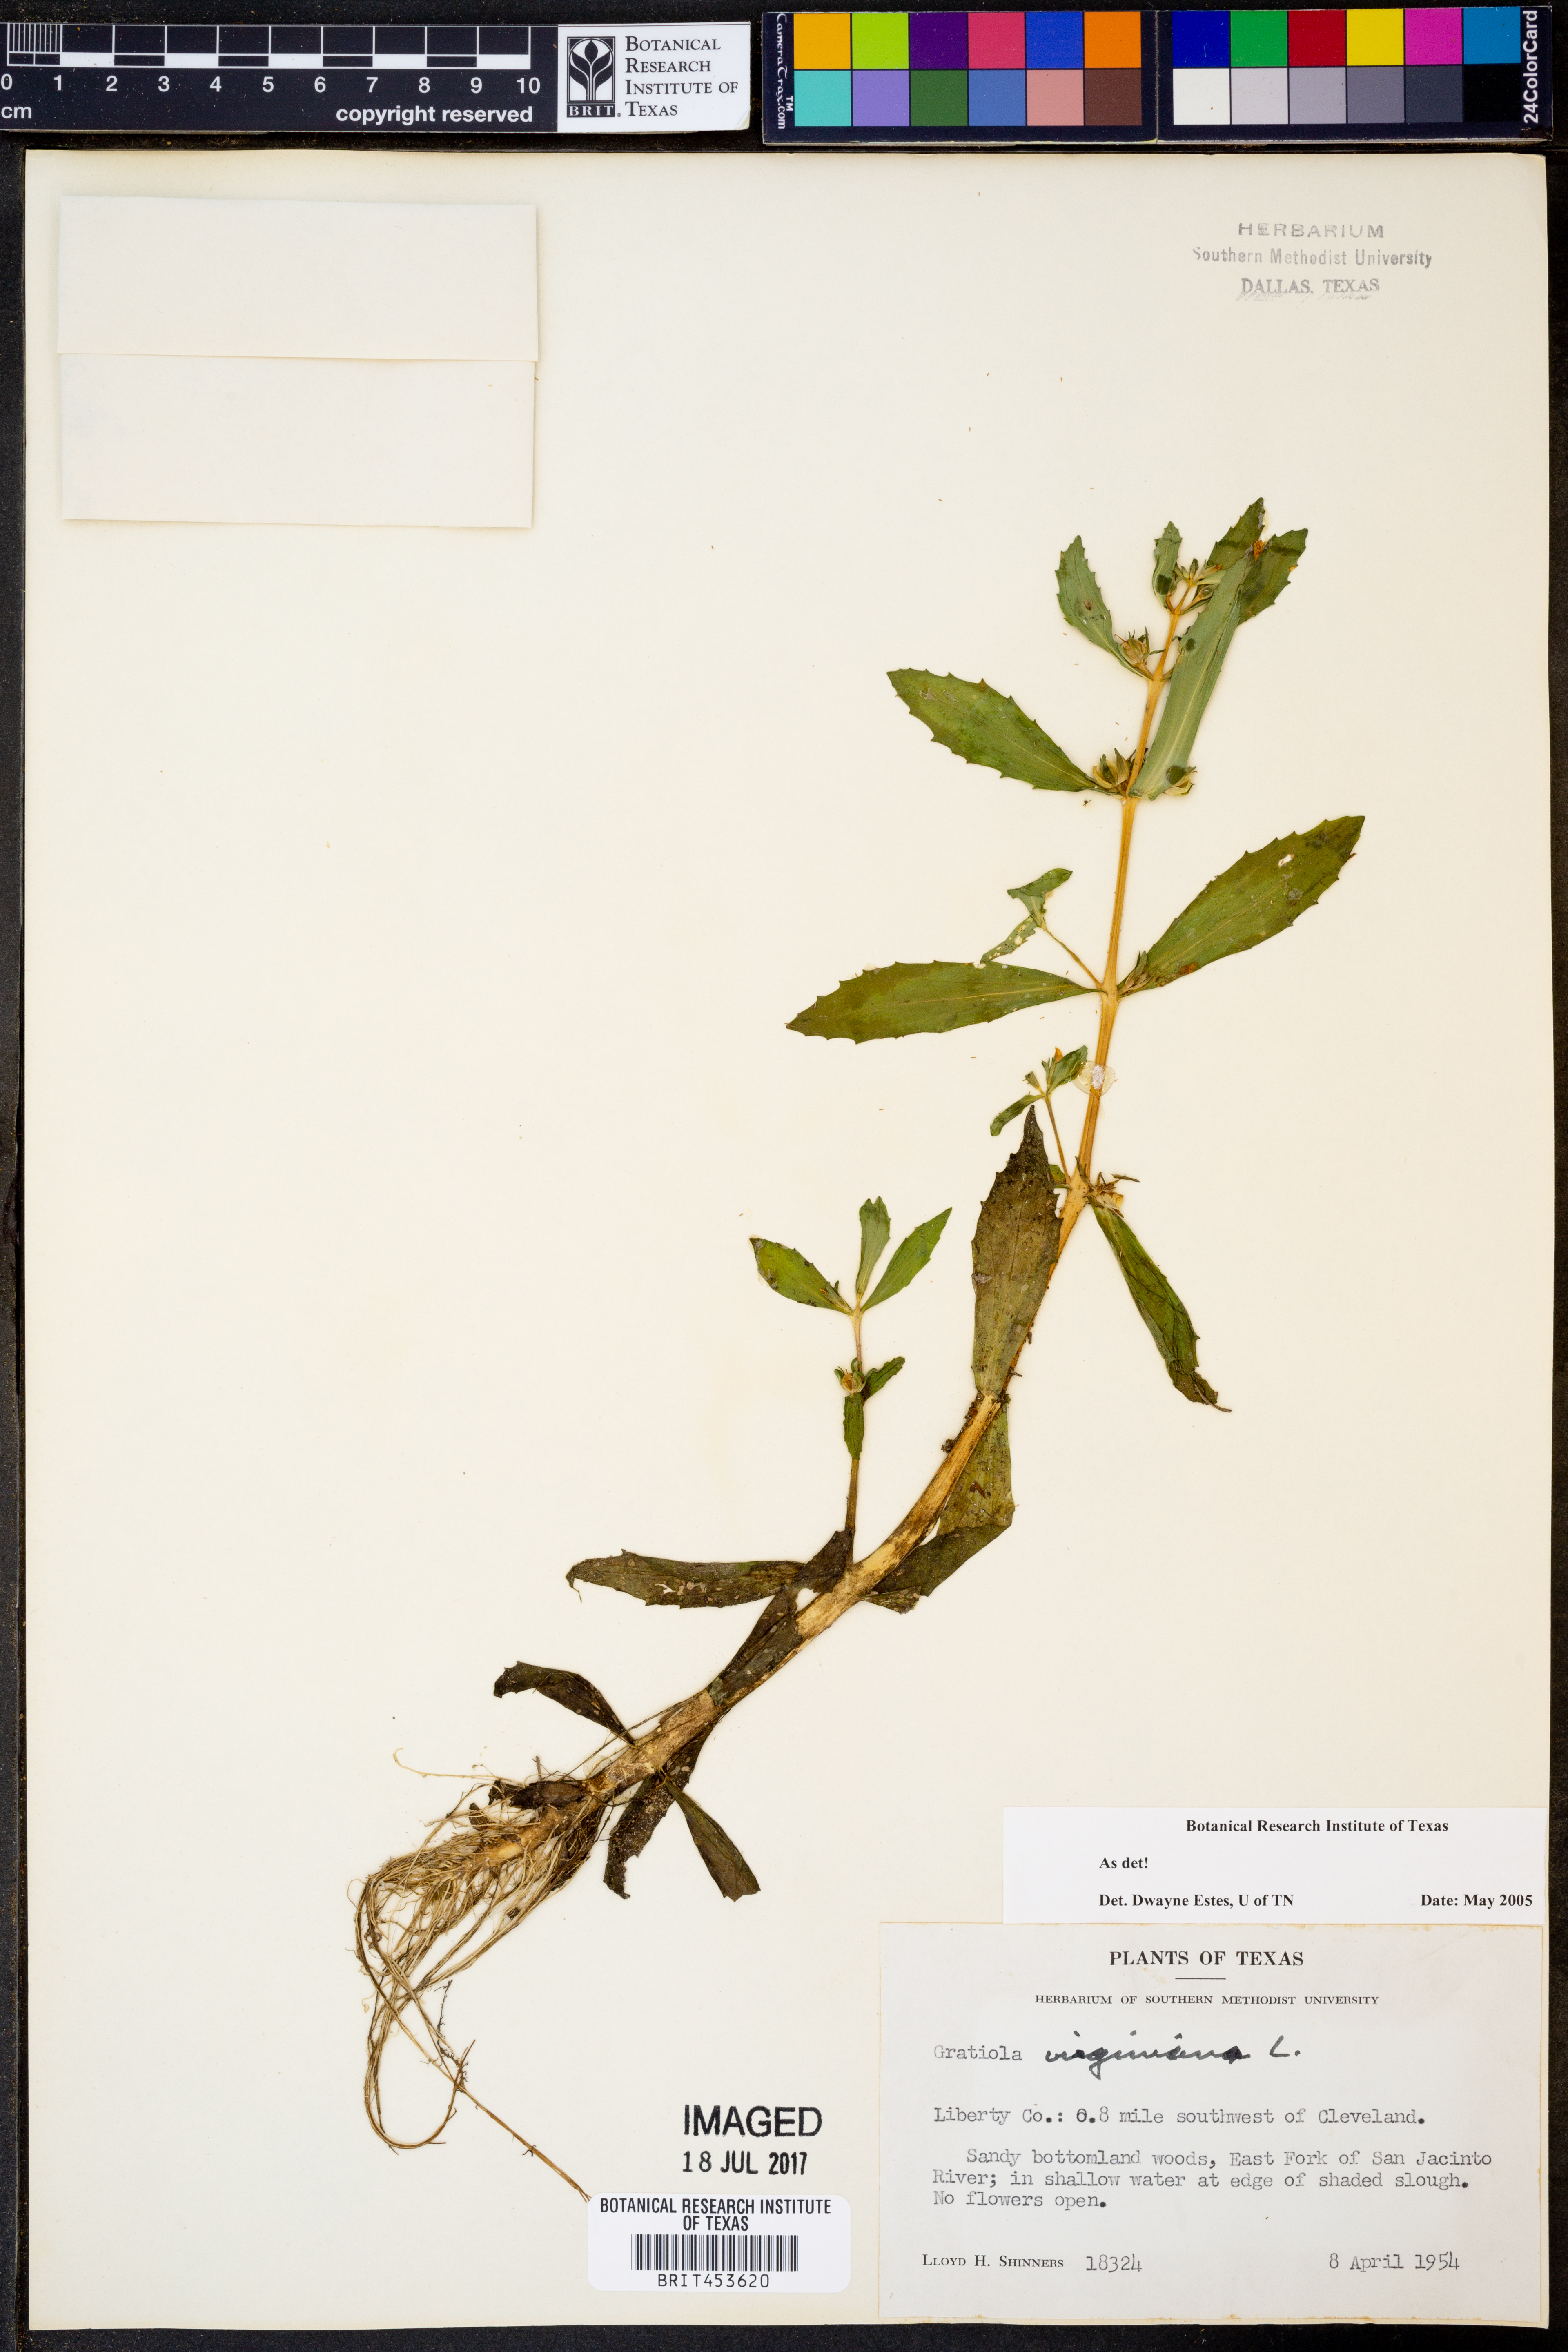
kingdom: Plantae
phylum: Tracheophyta
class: Magnoliopsida
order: Lamiales
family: Plantaginaceae
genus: Gratiola
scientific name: Gratiola
